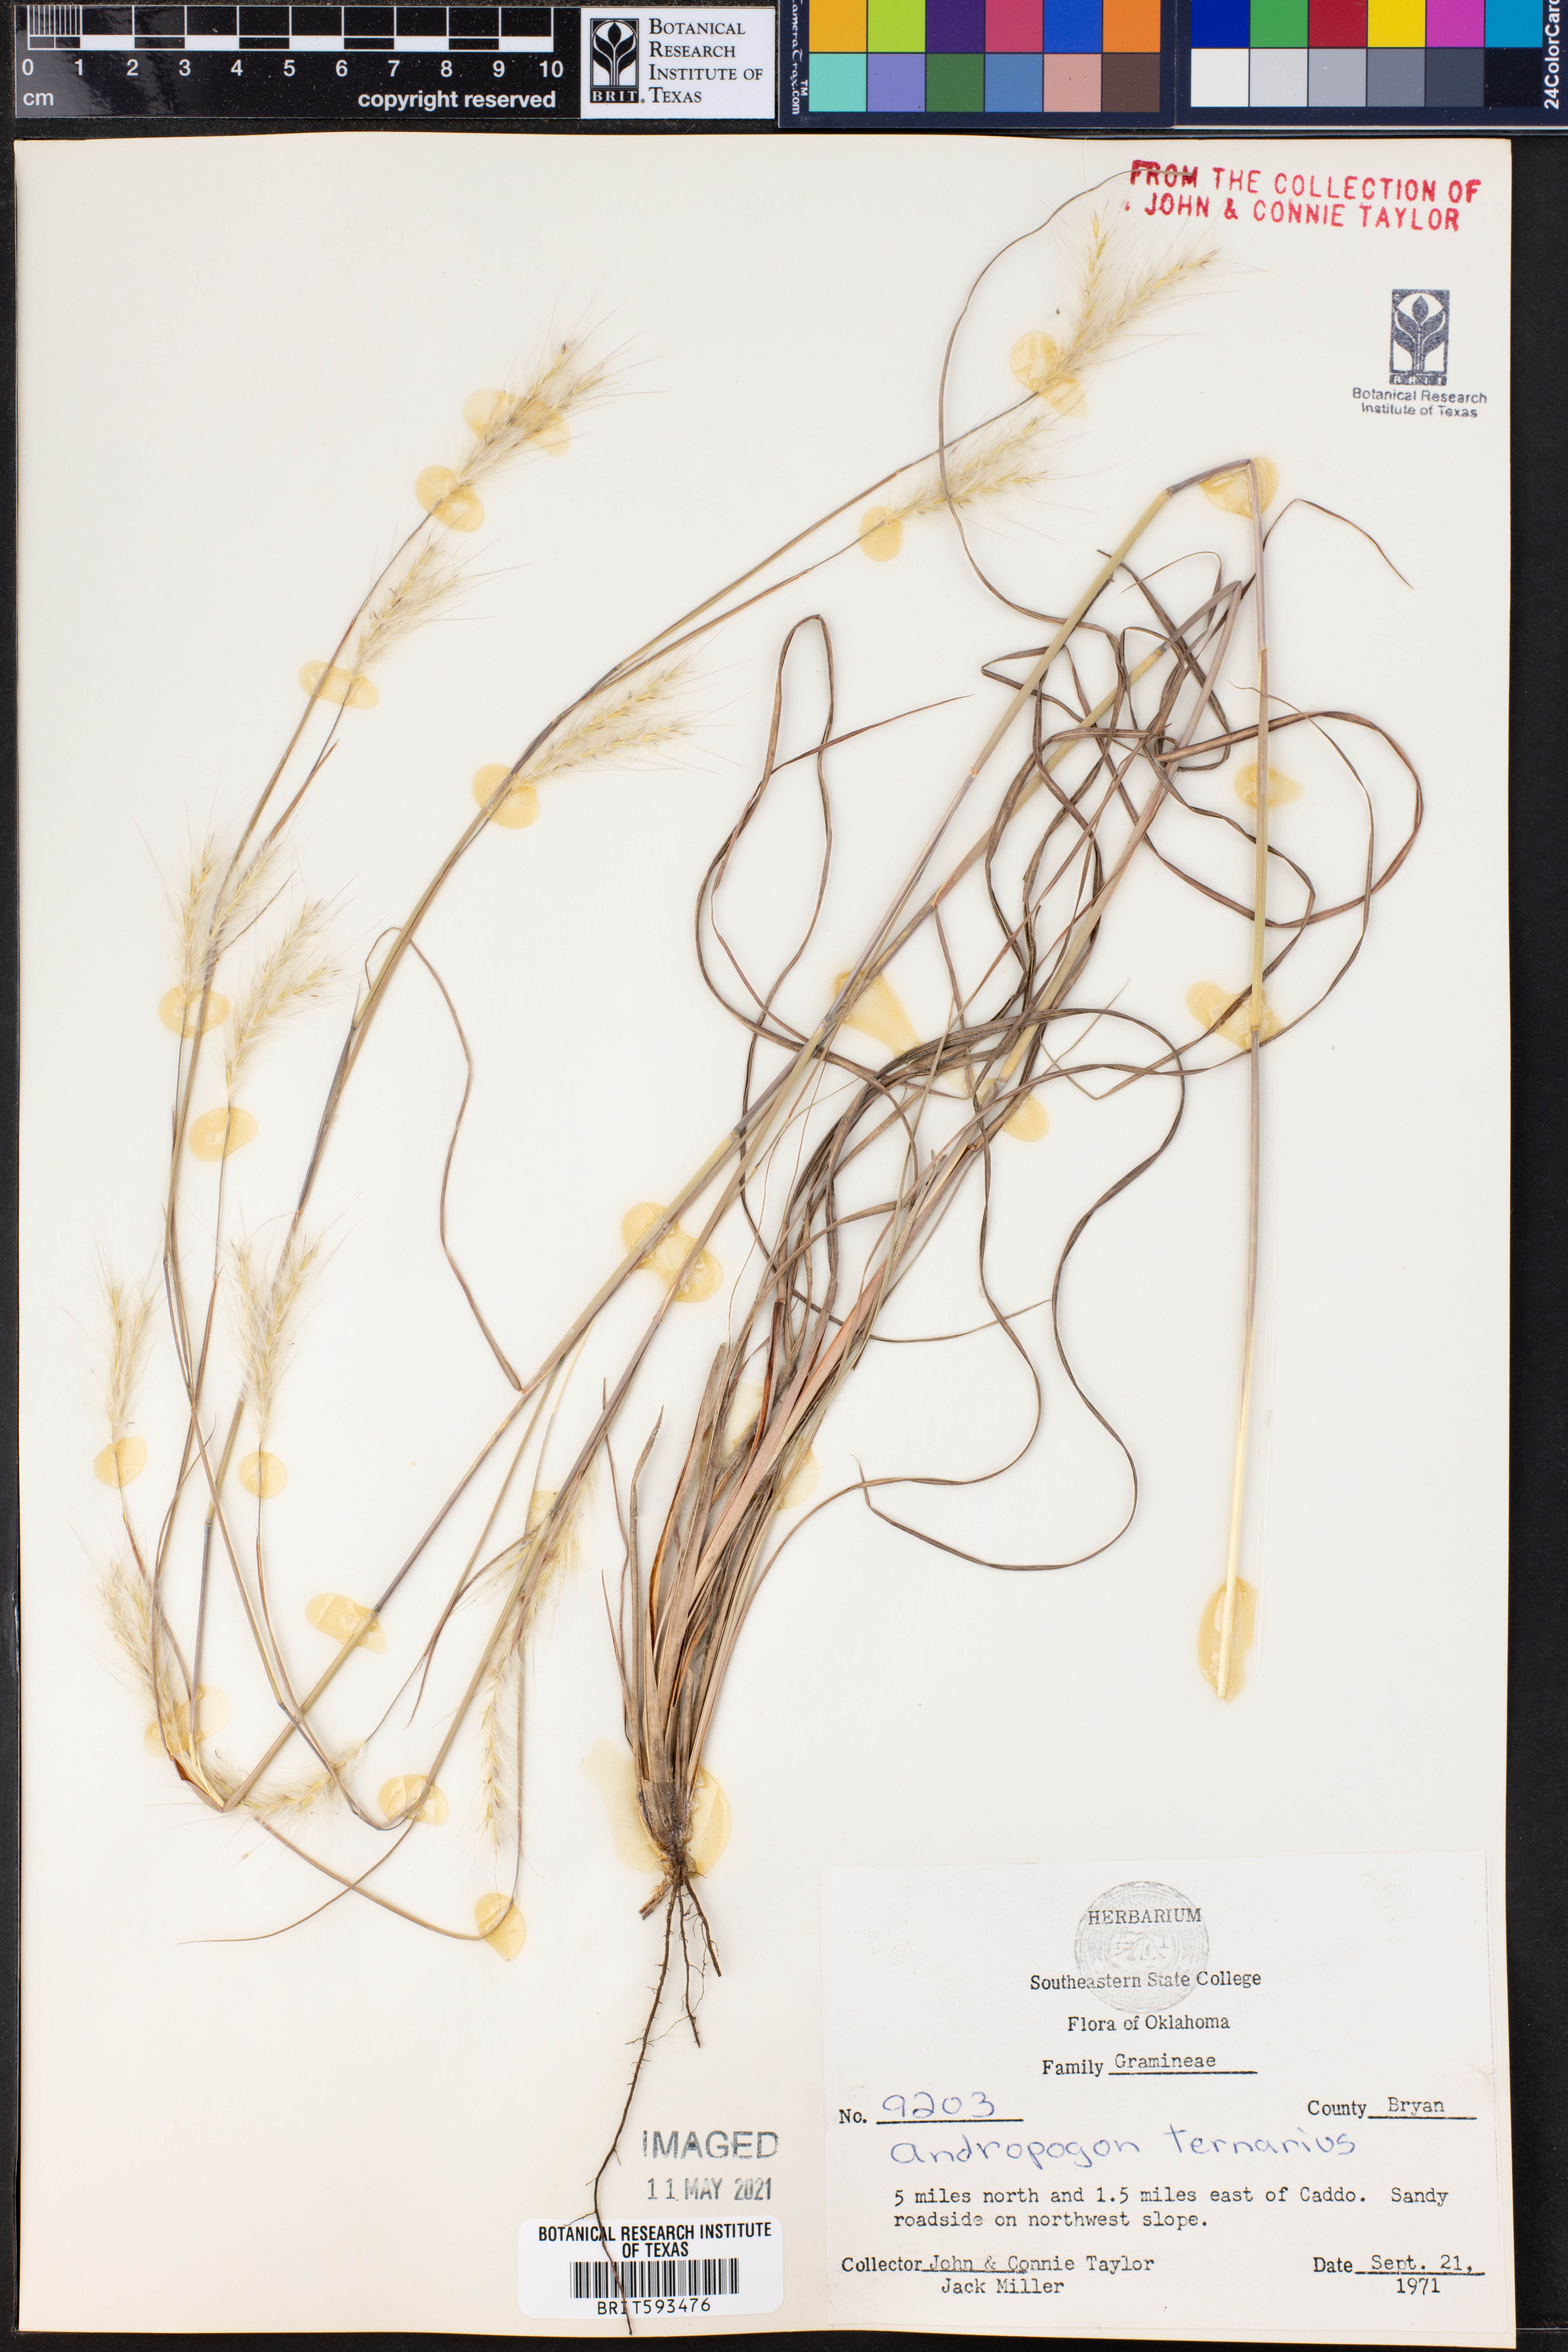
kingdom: Plantae
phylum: Tracheophyta
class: Liliopsida
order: Poales
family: Poaceae
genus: Andropogon
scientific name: Andropogon ternarius
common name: Split bluestem
